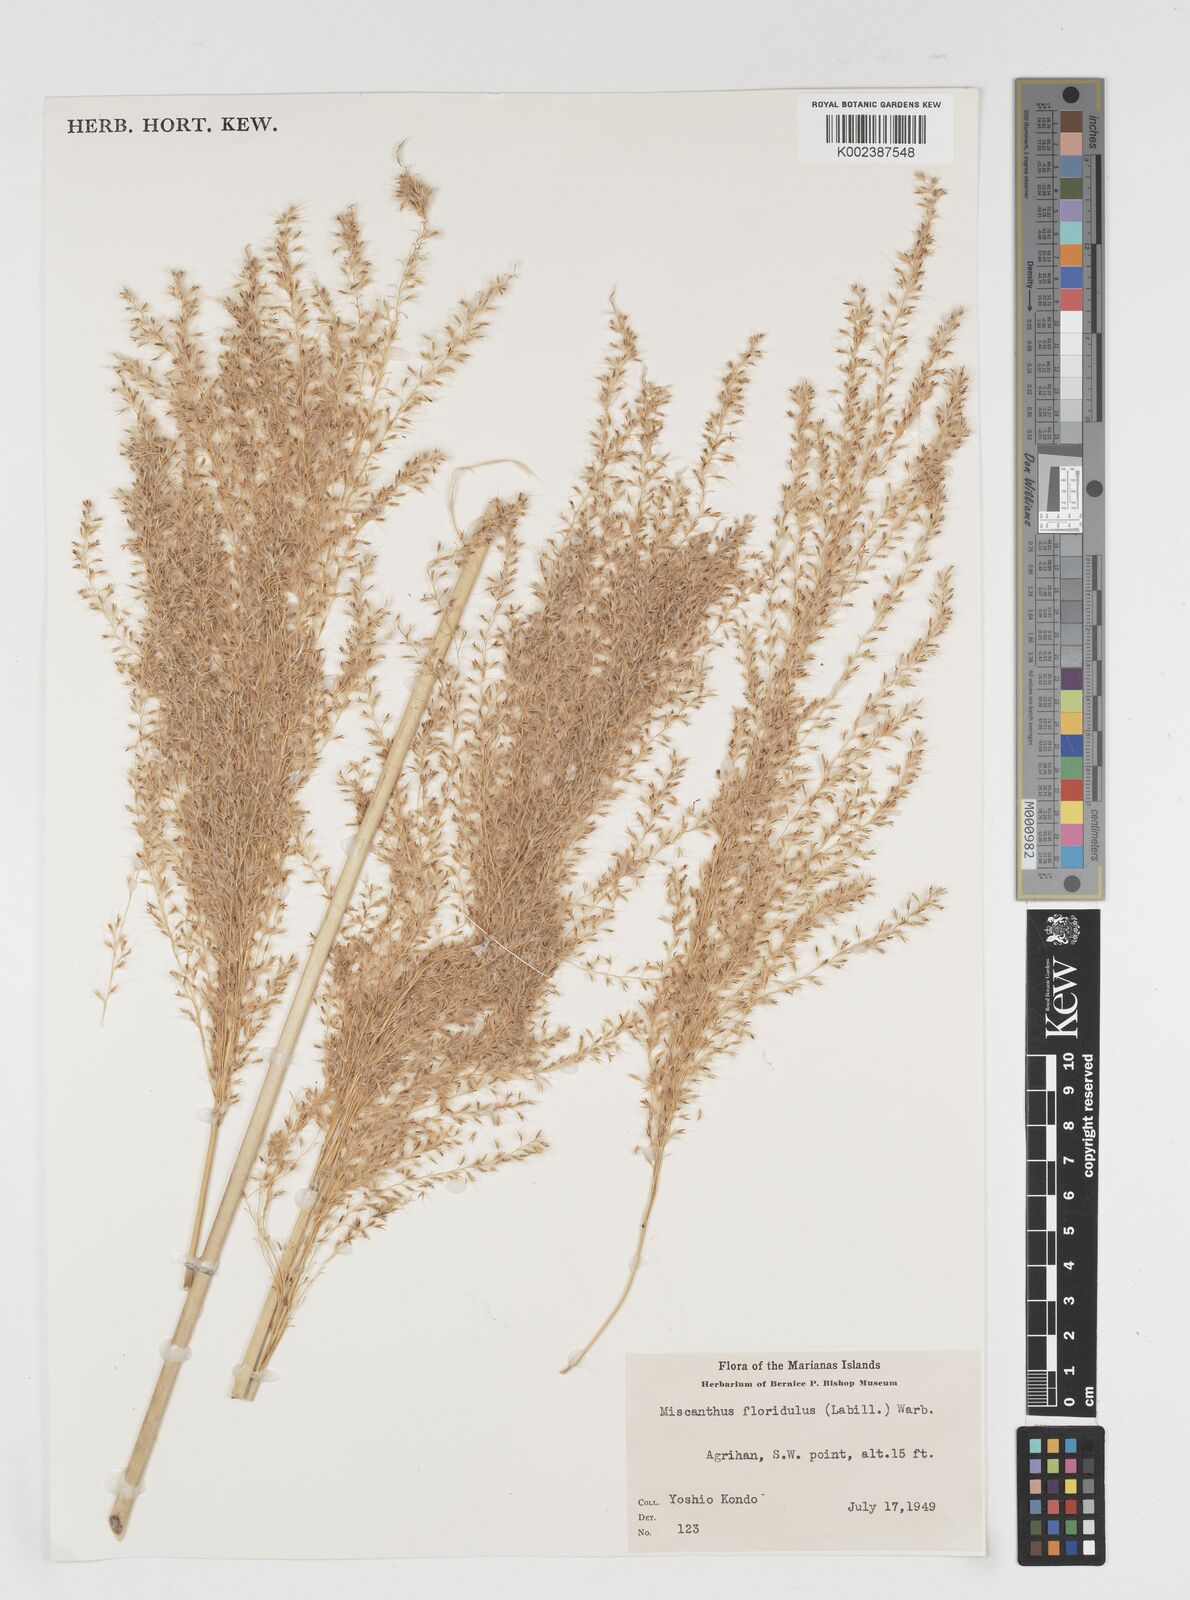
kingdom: Plantae
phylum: Tracheophyta
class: Liliopsida
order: Poales
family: Poaceae
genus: Miscanthus
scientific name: Miscanthus floridulus
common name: Pacific island silvergrass
